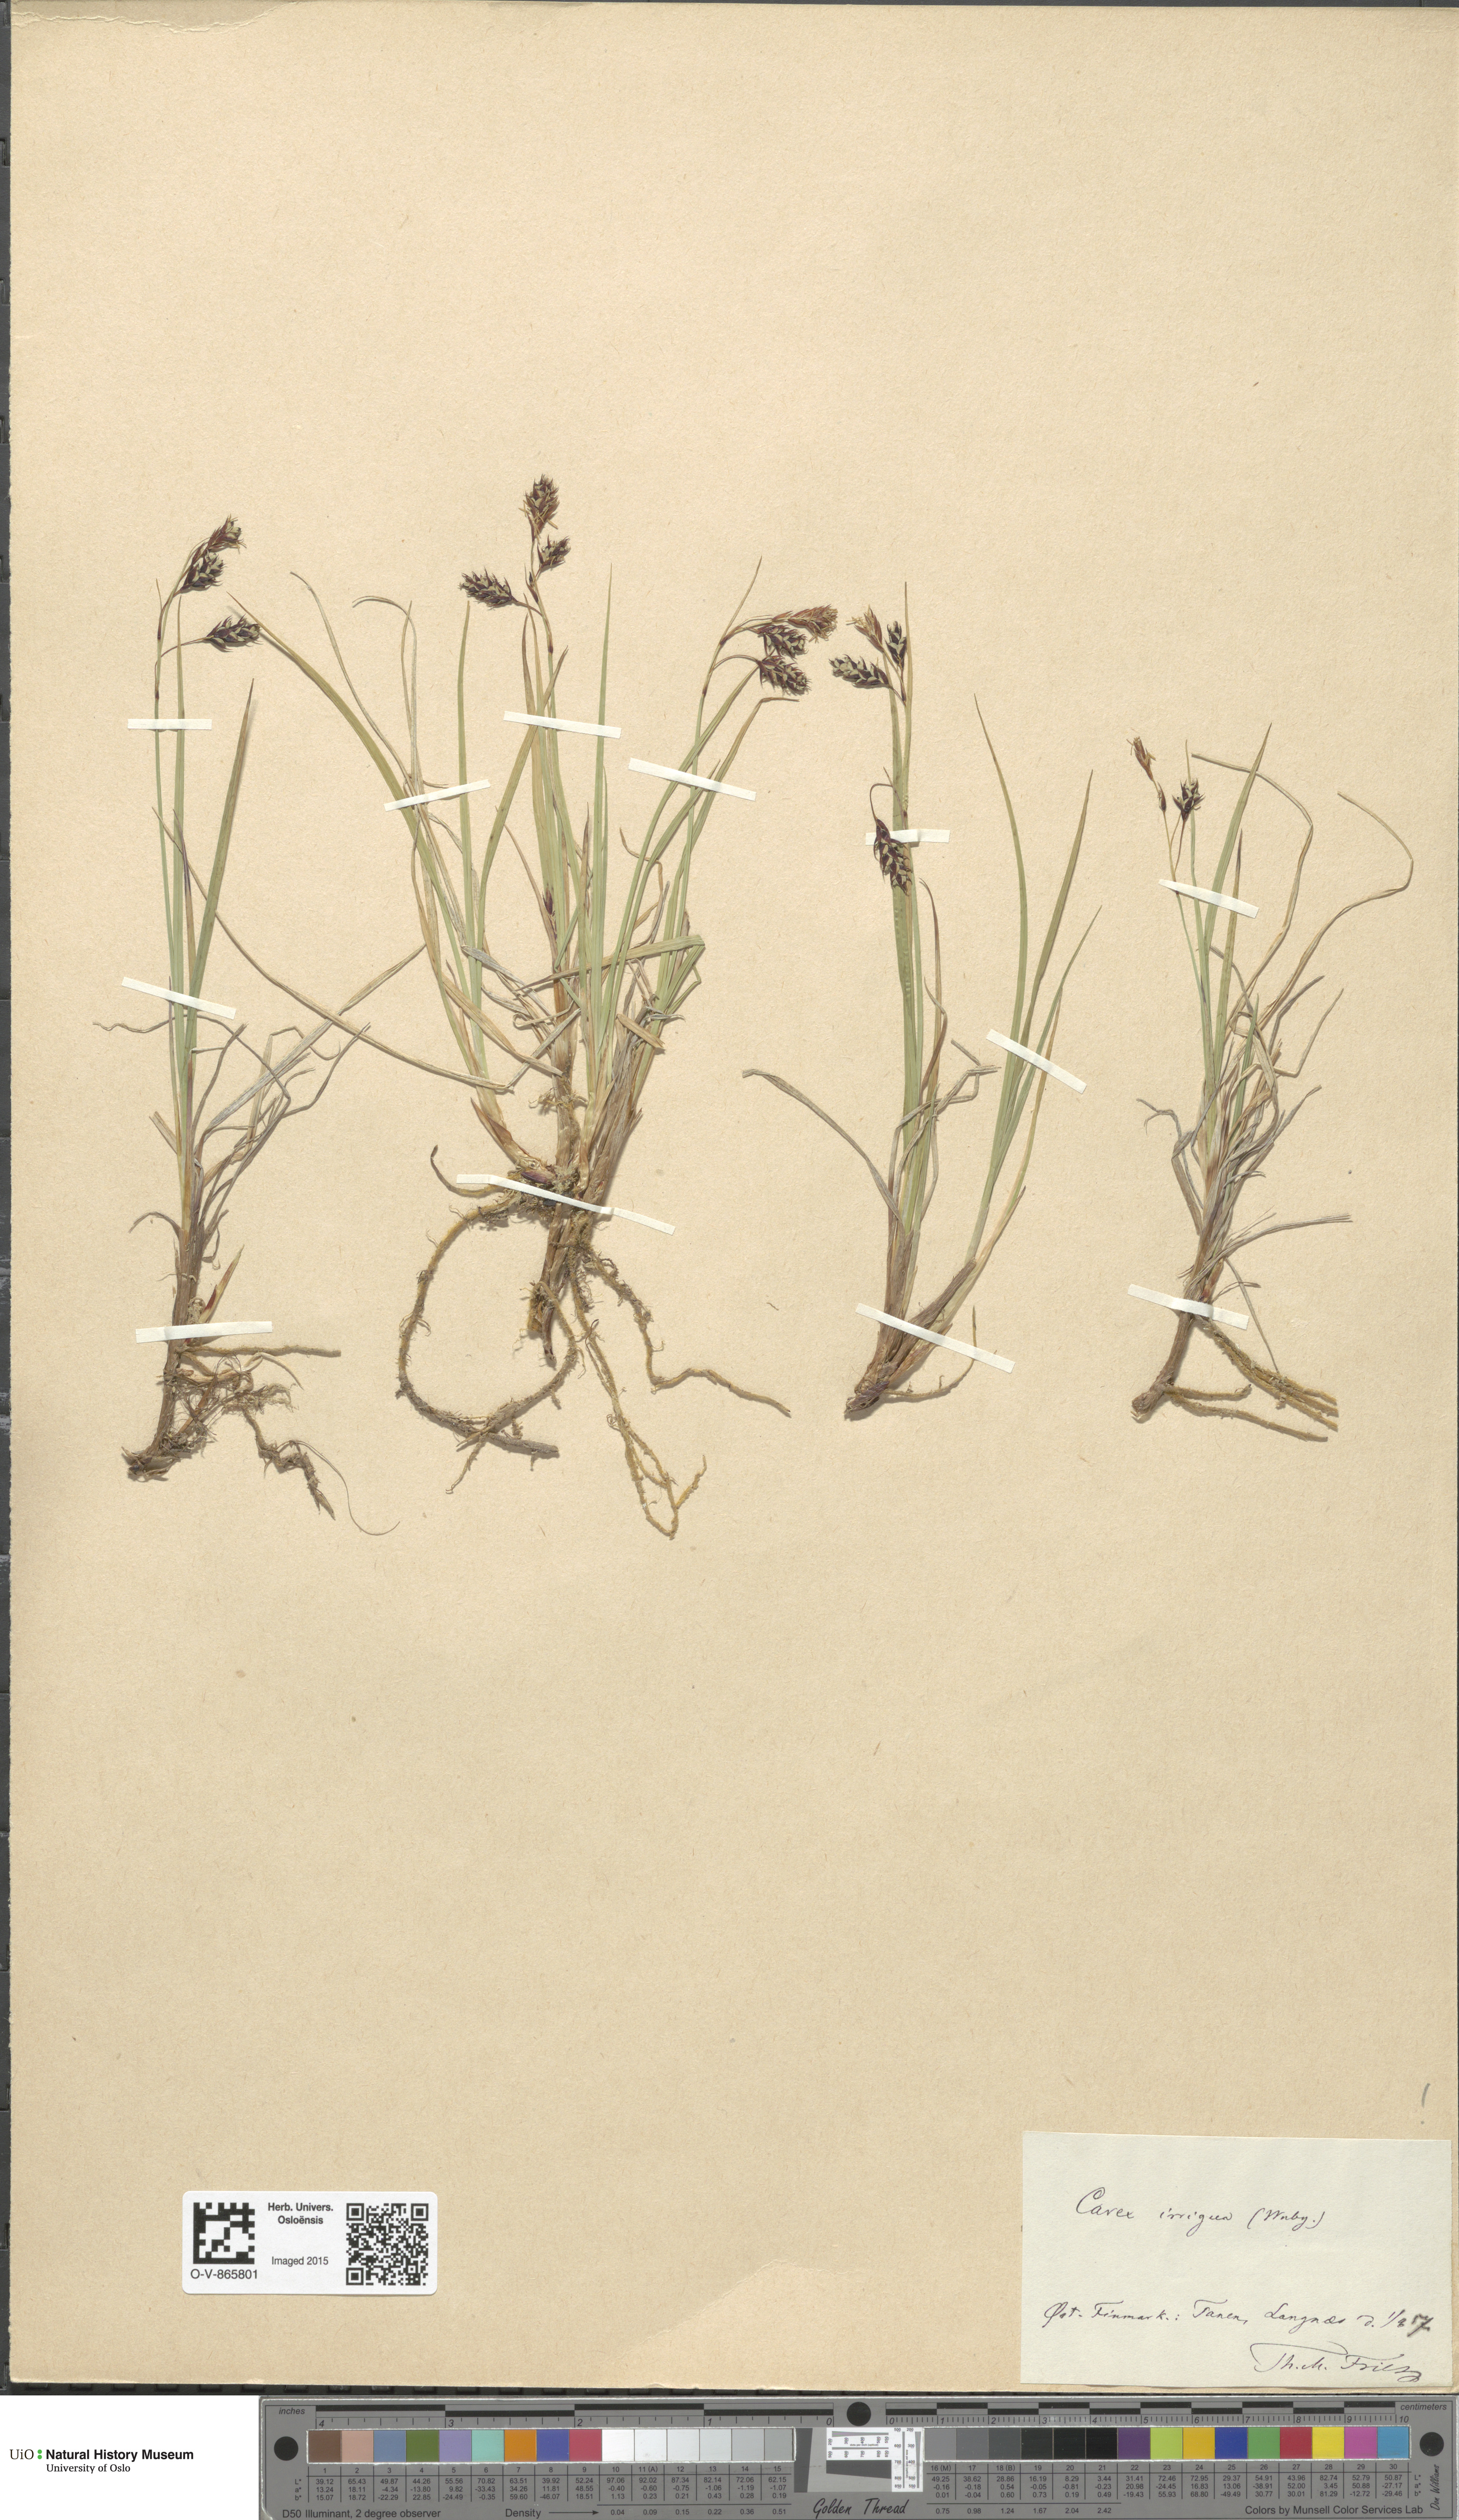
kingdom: Plantae
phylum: Tracheophyta
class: Liliopsida
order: Poales
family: Cyperaceae
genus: Carex
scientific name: Carex magellanica
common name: Bog sedge
